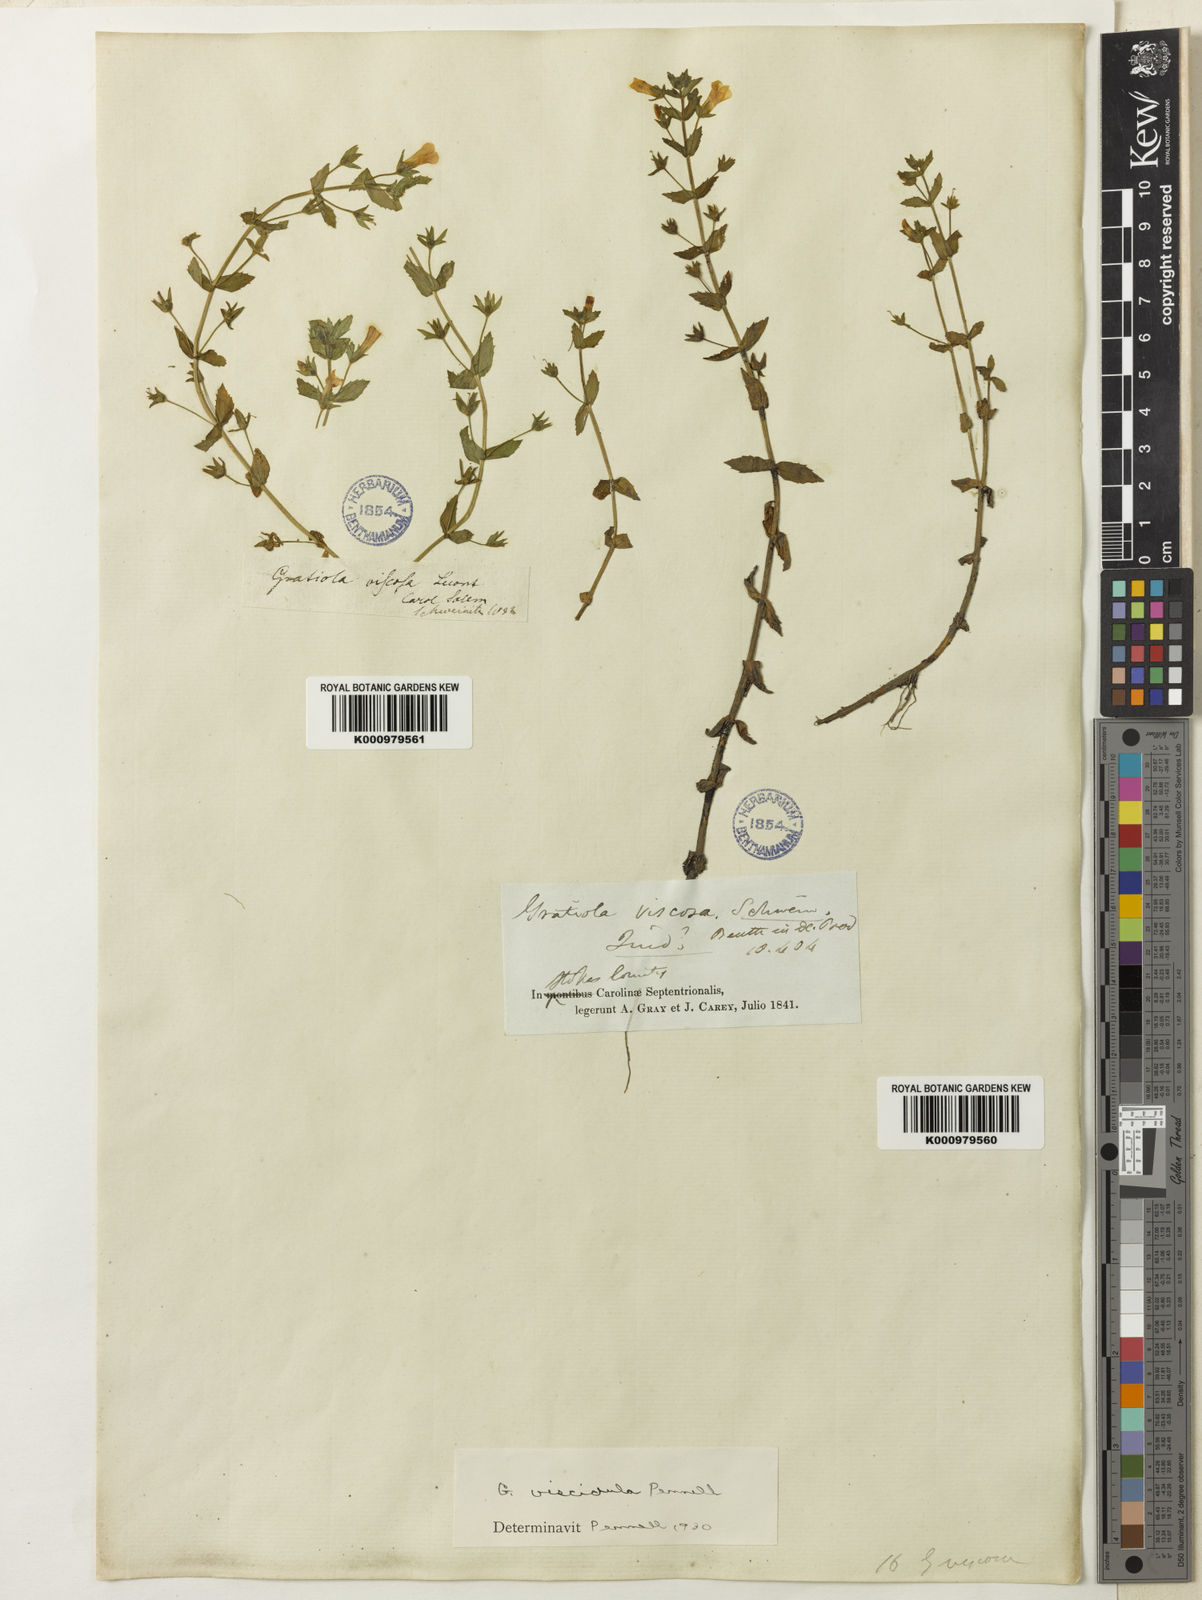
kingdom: Plantae
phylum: Tracheophyta
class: Magnoliopsida
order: Lamiales
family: Plantaginaceae
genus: Gratiola
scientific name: Gratiola lutea
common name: Golden hedge-hyssop
